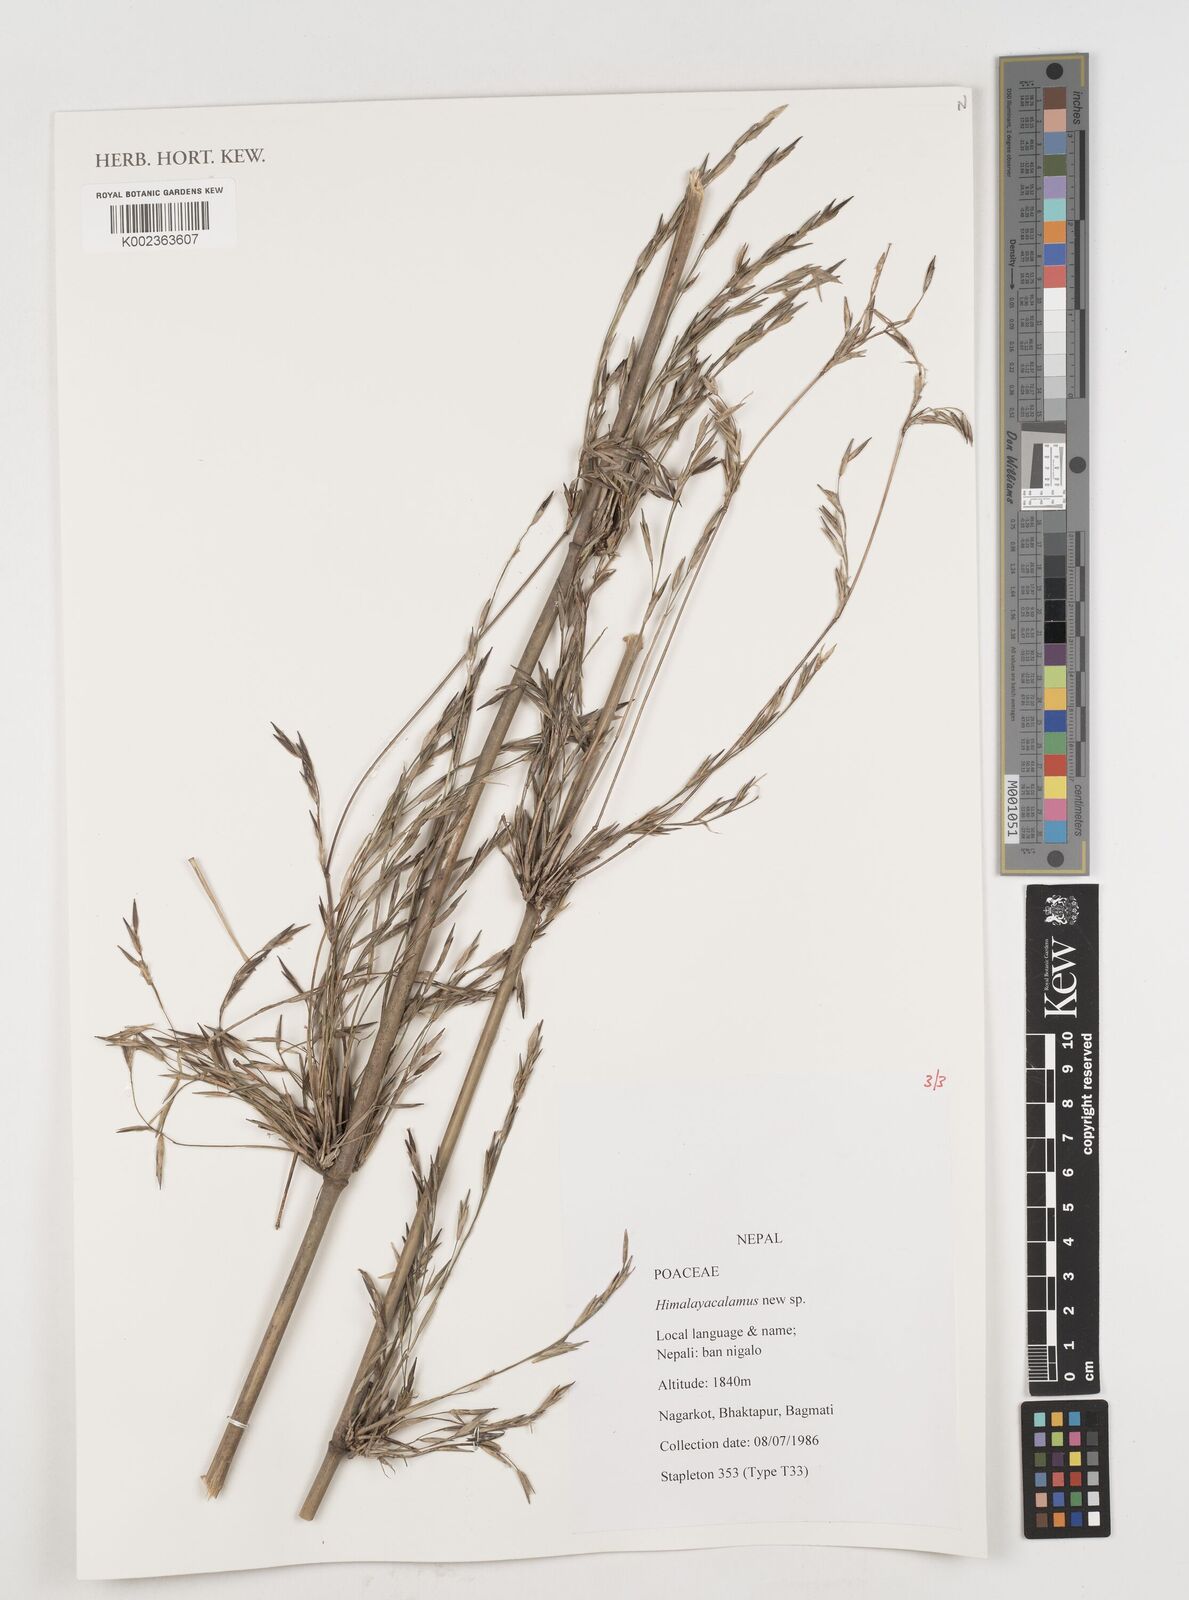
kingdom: Plantae
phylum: Tracheophyta
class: Liliopsida
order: Poales
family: Poaceae
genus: Himalayacalamus
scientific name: Himalayacalamus
